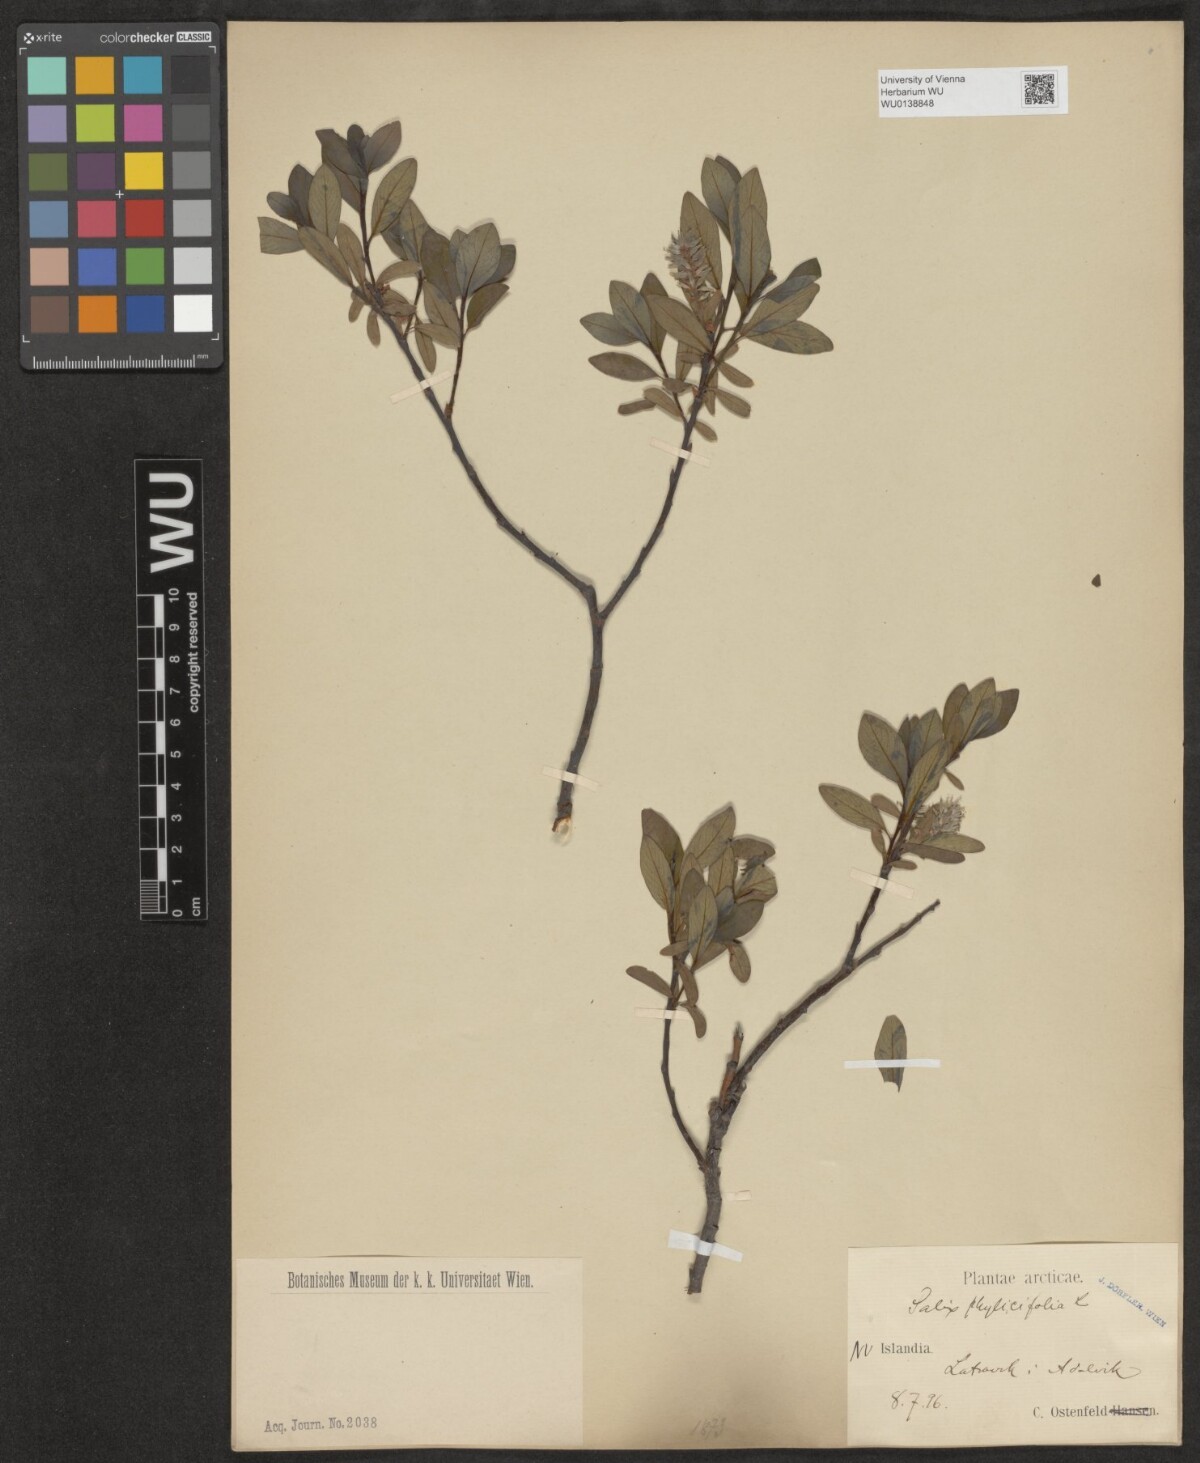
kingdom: Plantae
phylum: Tracheophyta
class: Magnoliopsida
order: Malpighiales
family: Salicaceae
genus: Salix
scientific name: Salix phylicifolia
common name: Tea-leaved willow
